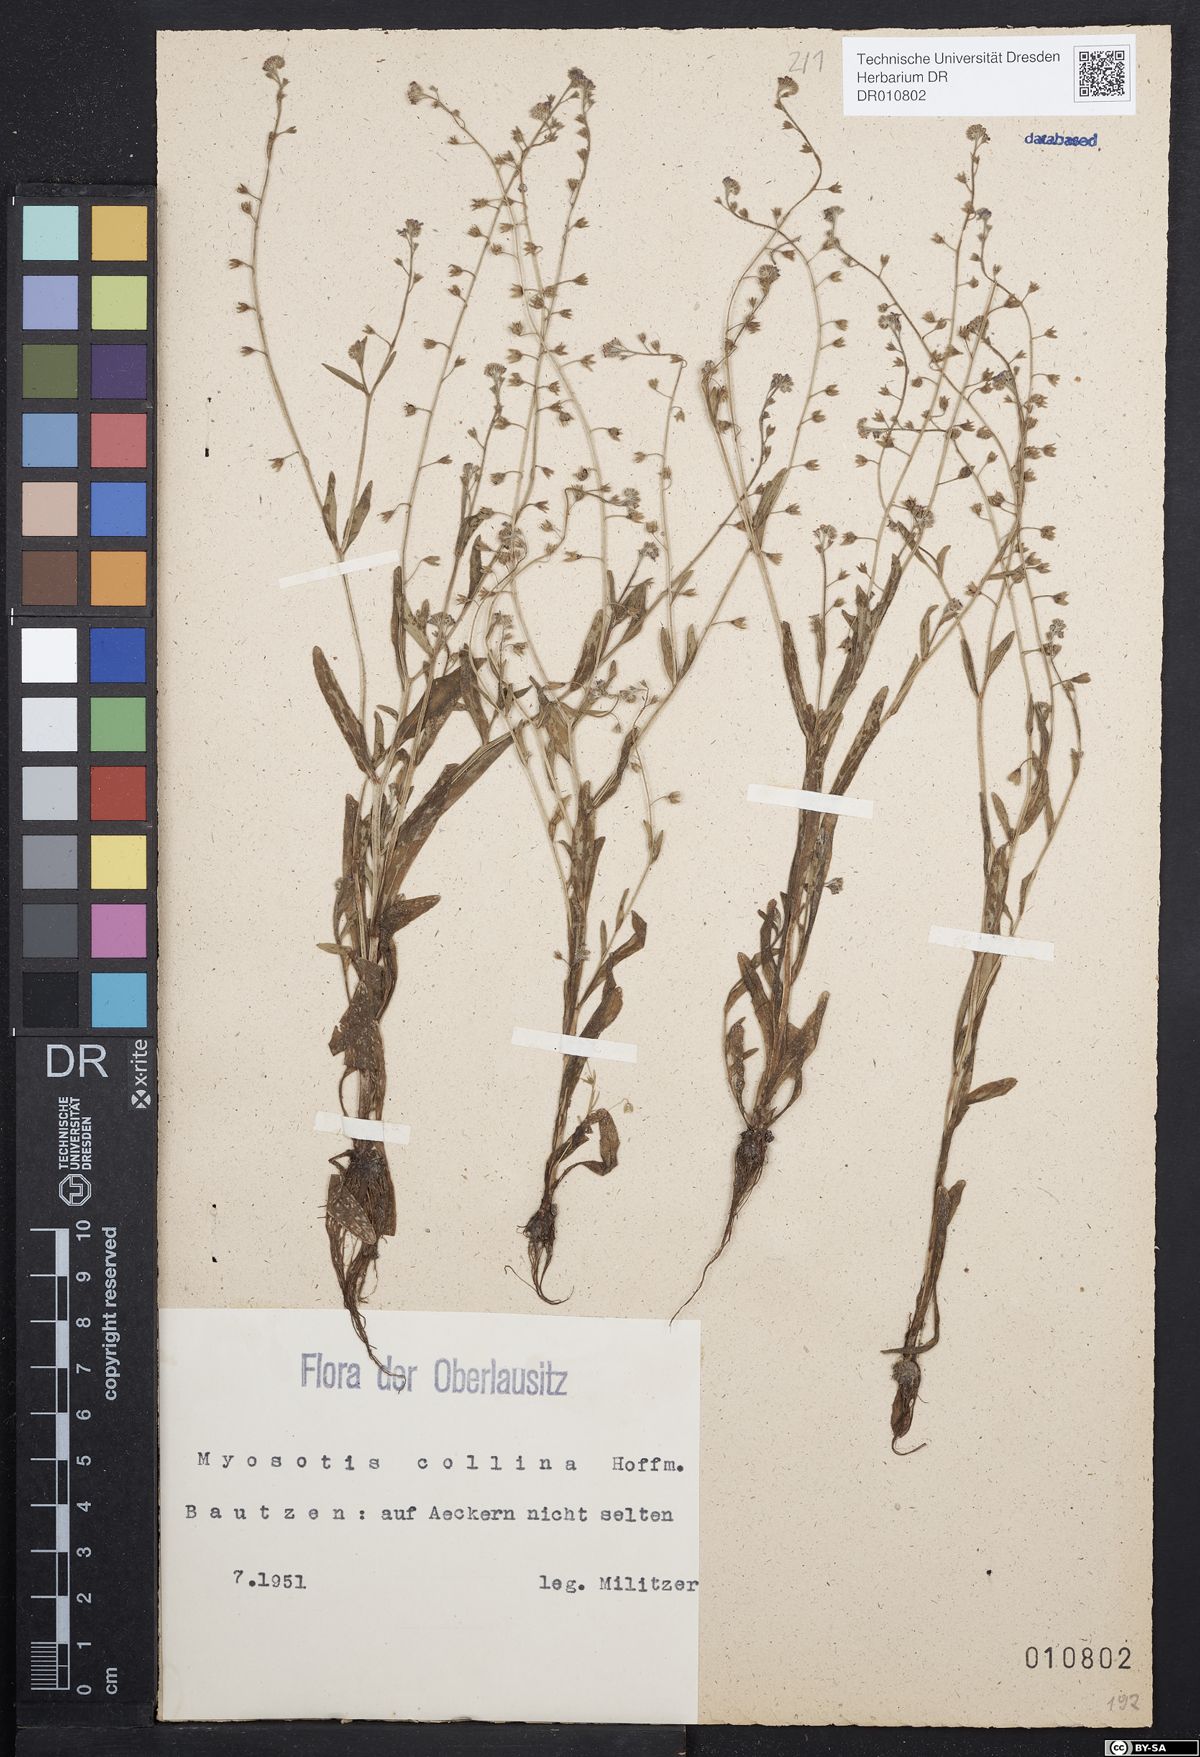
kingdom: Plantae
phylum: Tracheophyta
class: Magnoliopsida
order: Boraginales
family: Boraginaceae
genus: Myosotis
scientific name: Myosotis ramosissima
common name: Early forget-me-not
